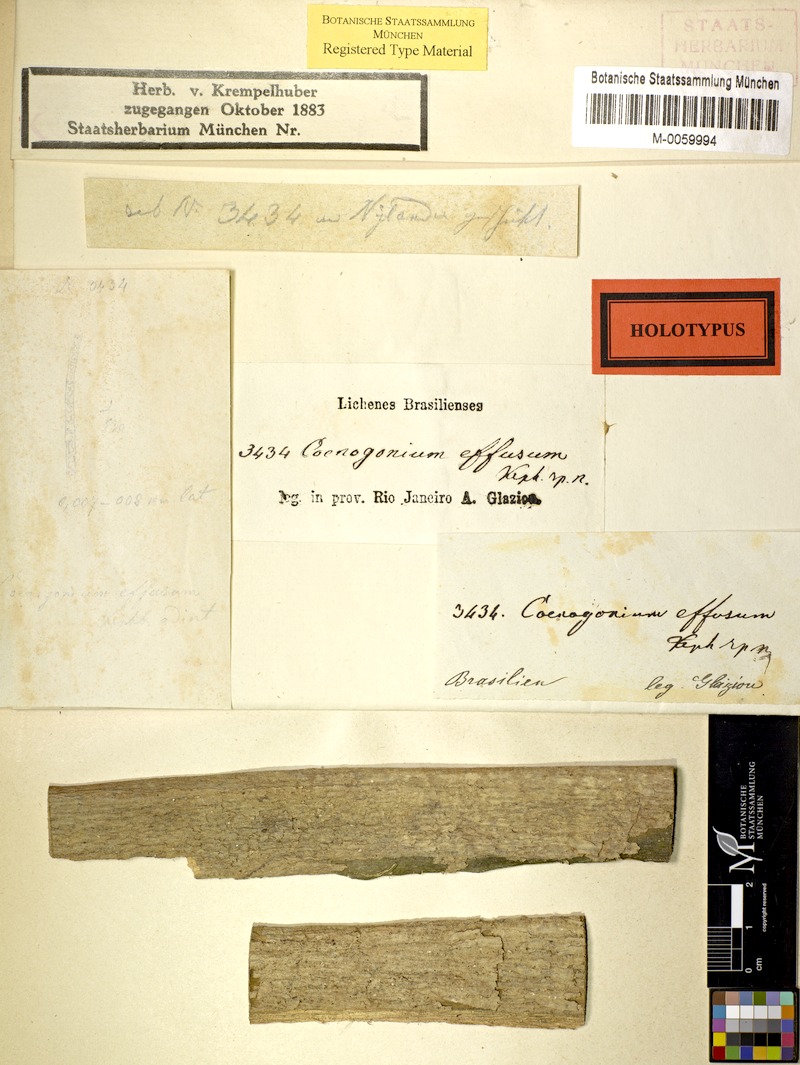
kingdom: Fungi
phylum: Ascomycota
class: Lecanoromycetes
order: Ostropales
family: Coenogoniaceae
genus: Coenogonium
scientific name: Coenogonium
